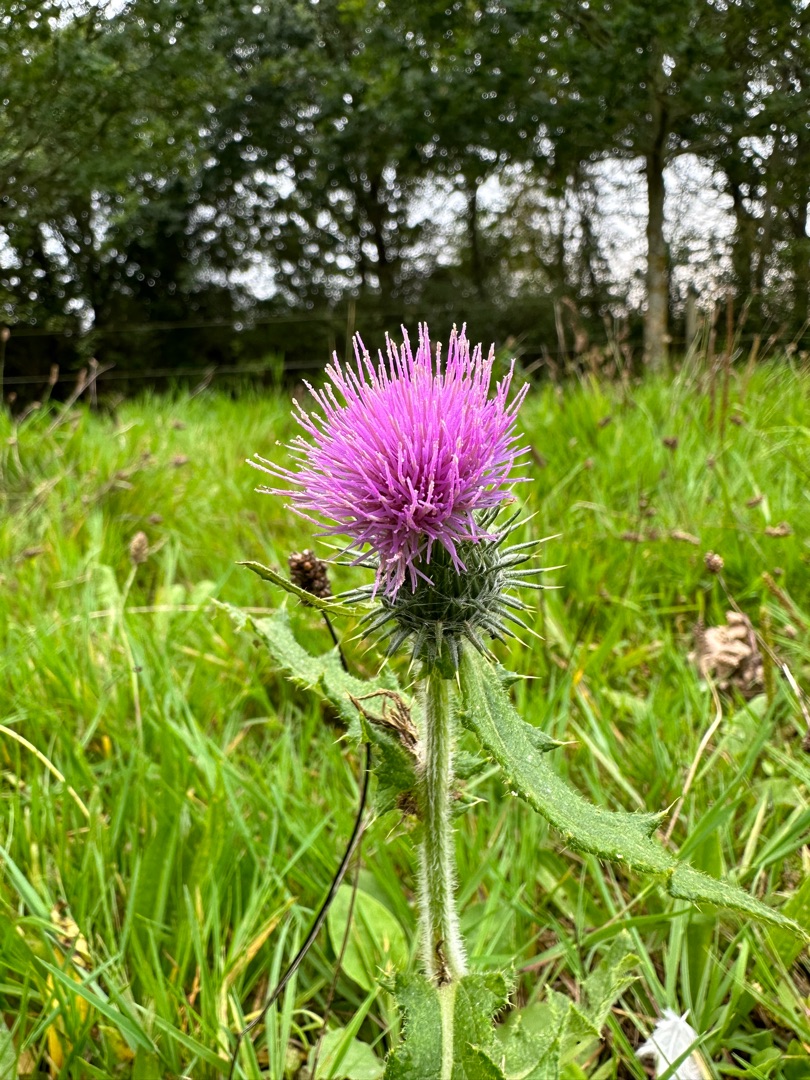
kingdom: Plantae
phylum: Tracheophyta
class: Magnoliopsida
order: Asterales
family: Asteraceae
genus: Cirsium
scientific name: Cirsium vulgare
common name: Horse-tidsel
